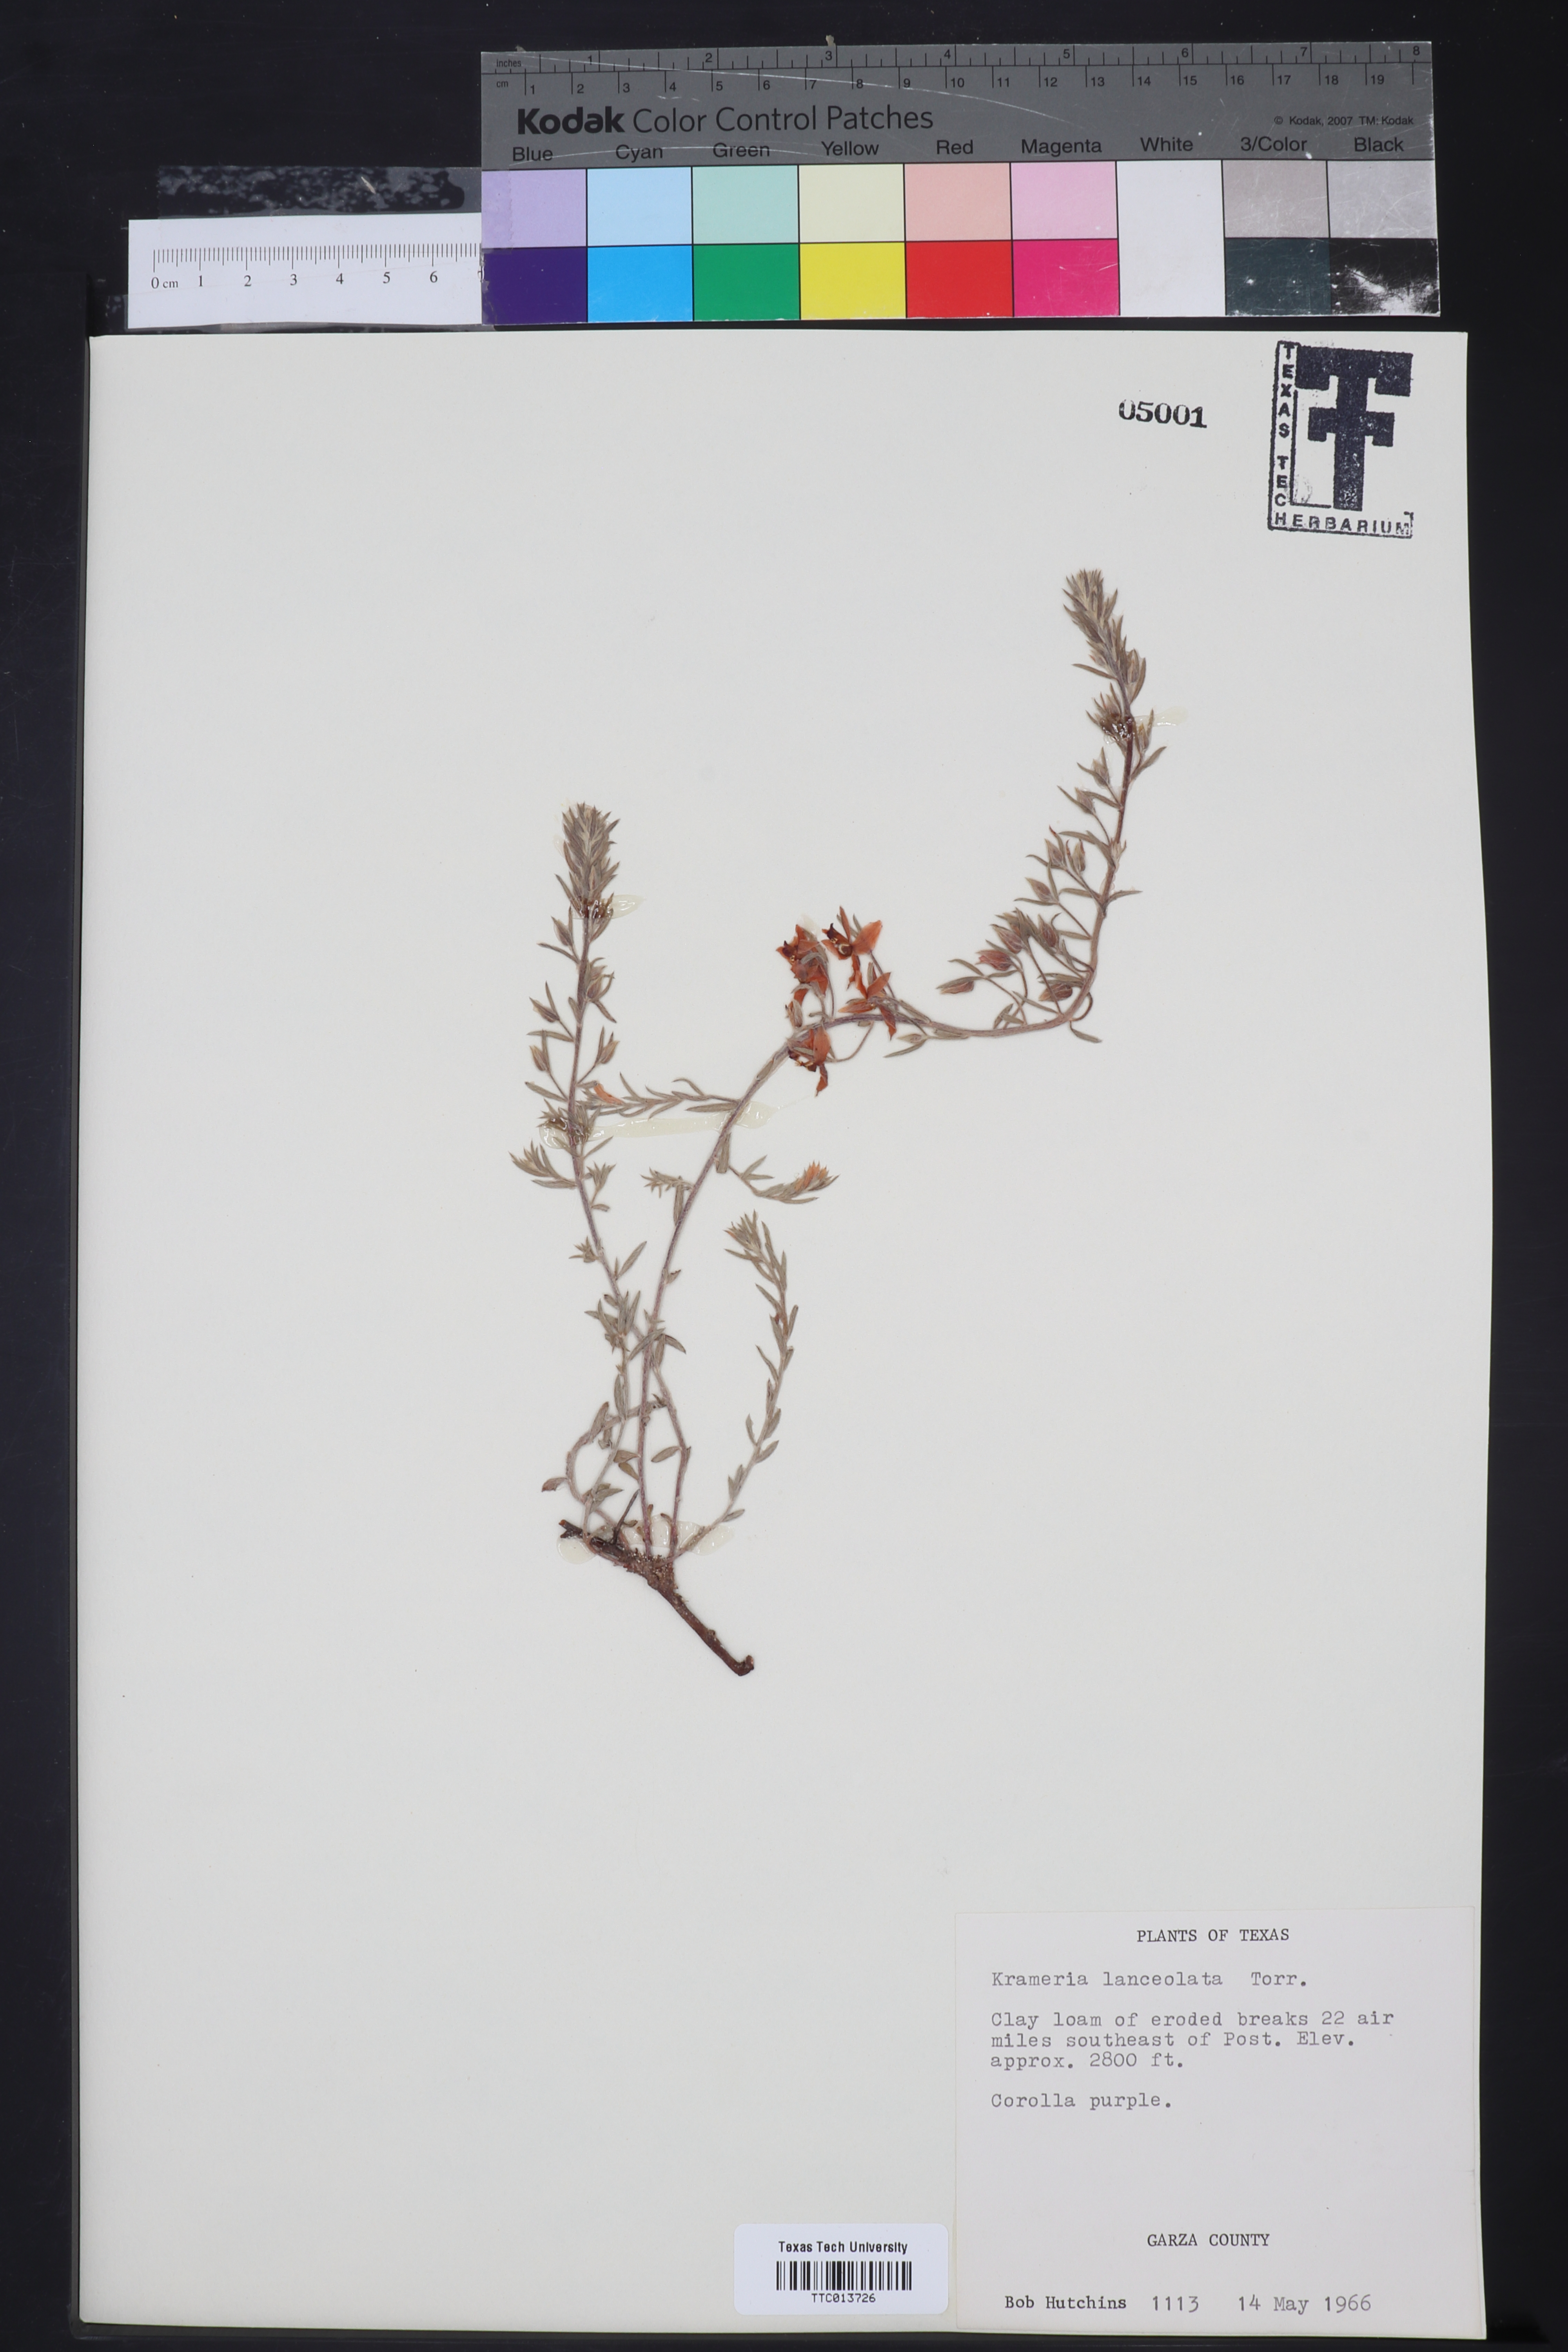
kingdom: Plantae
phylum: Tracheophyta
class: Magnoliopsida
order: Zygophyllales
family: Krameriaceae
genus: Krameria
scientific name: Krameria lanceolata
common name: Ratany
